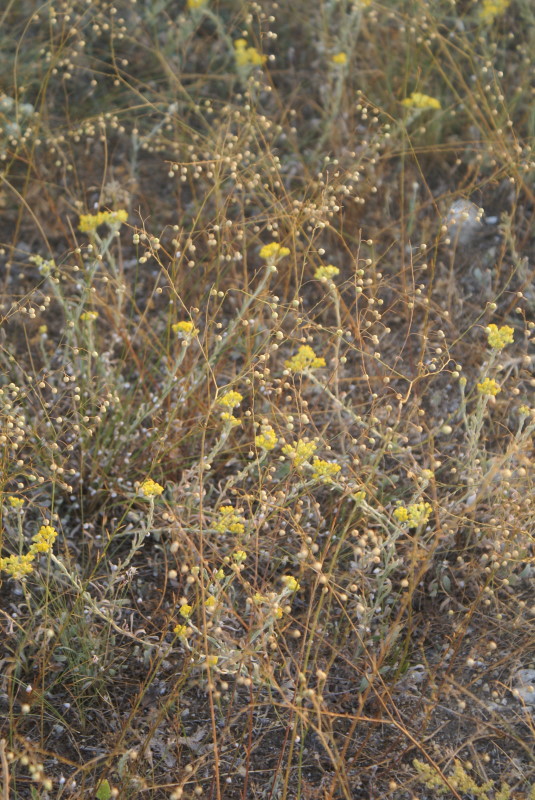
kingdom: Plantae
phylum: Tracheophyta
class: Magnoliopsida
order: Asterales
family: Asteraceae
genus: Helichrysum
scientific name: Helichrysum arenarium
